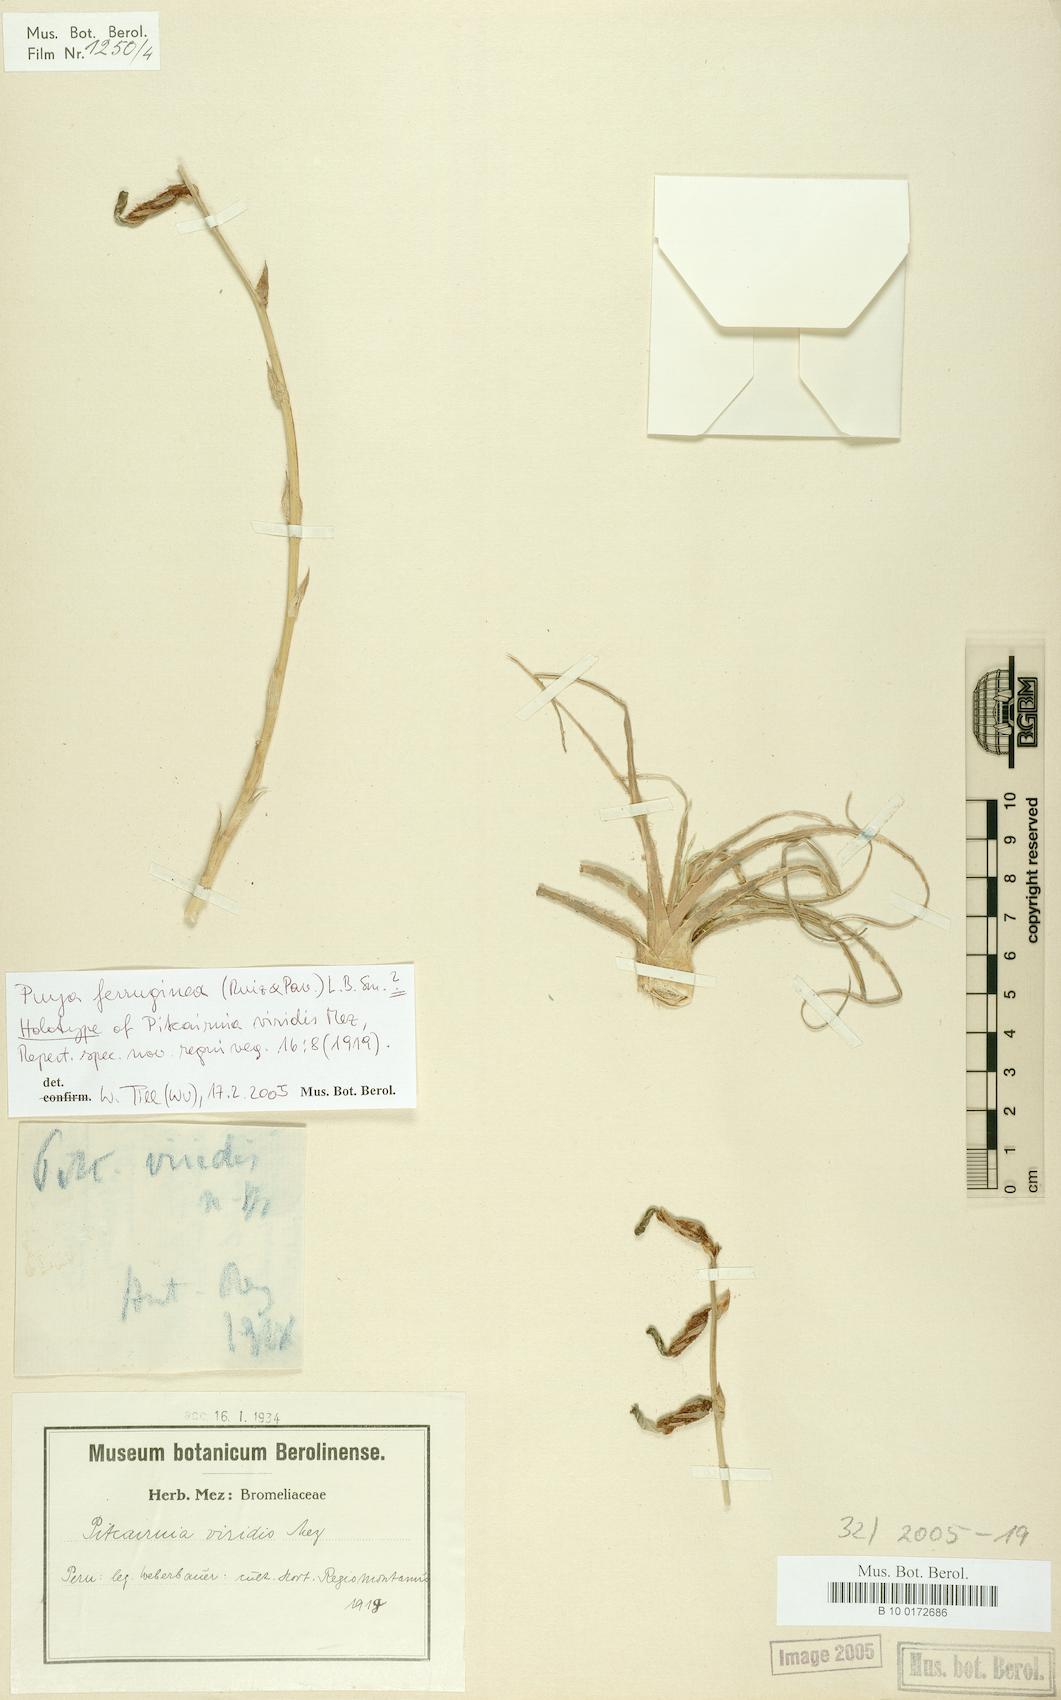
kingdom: Plantae
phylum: Tracheophyta
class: Liliopsida
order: Poales
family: Bromeliaceae
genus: Puya
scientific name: Puya ferruginea
